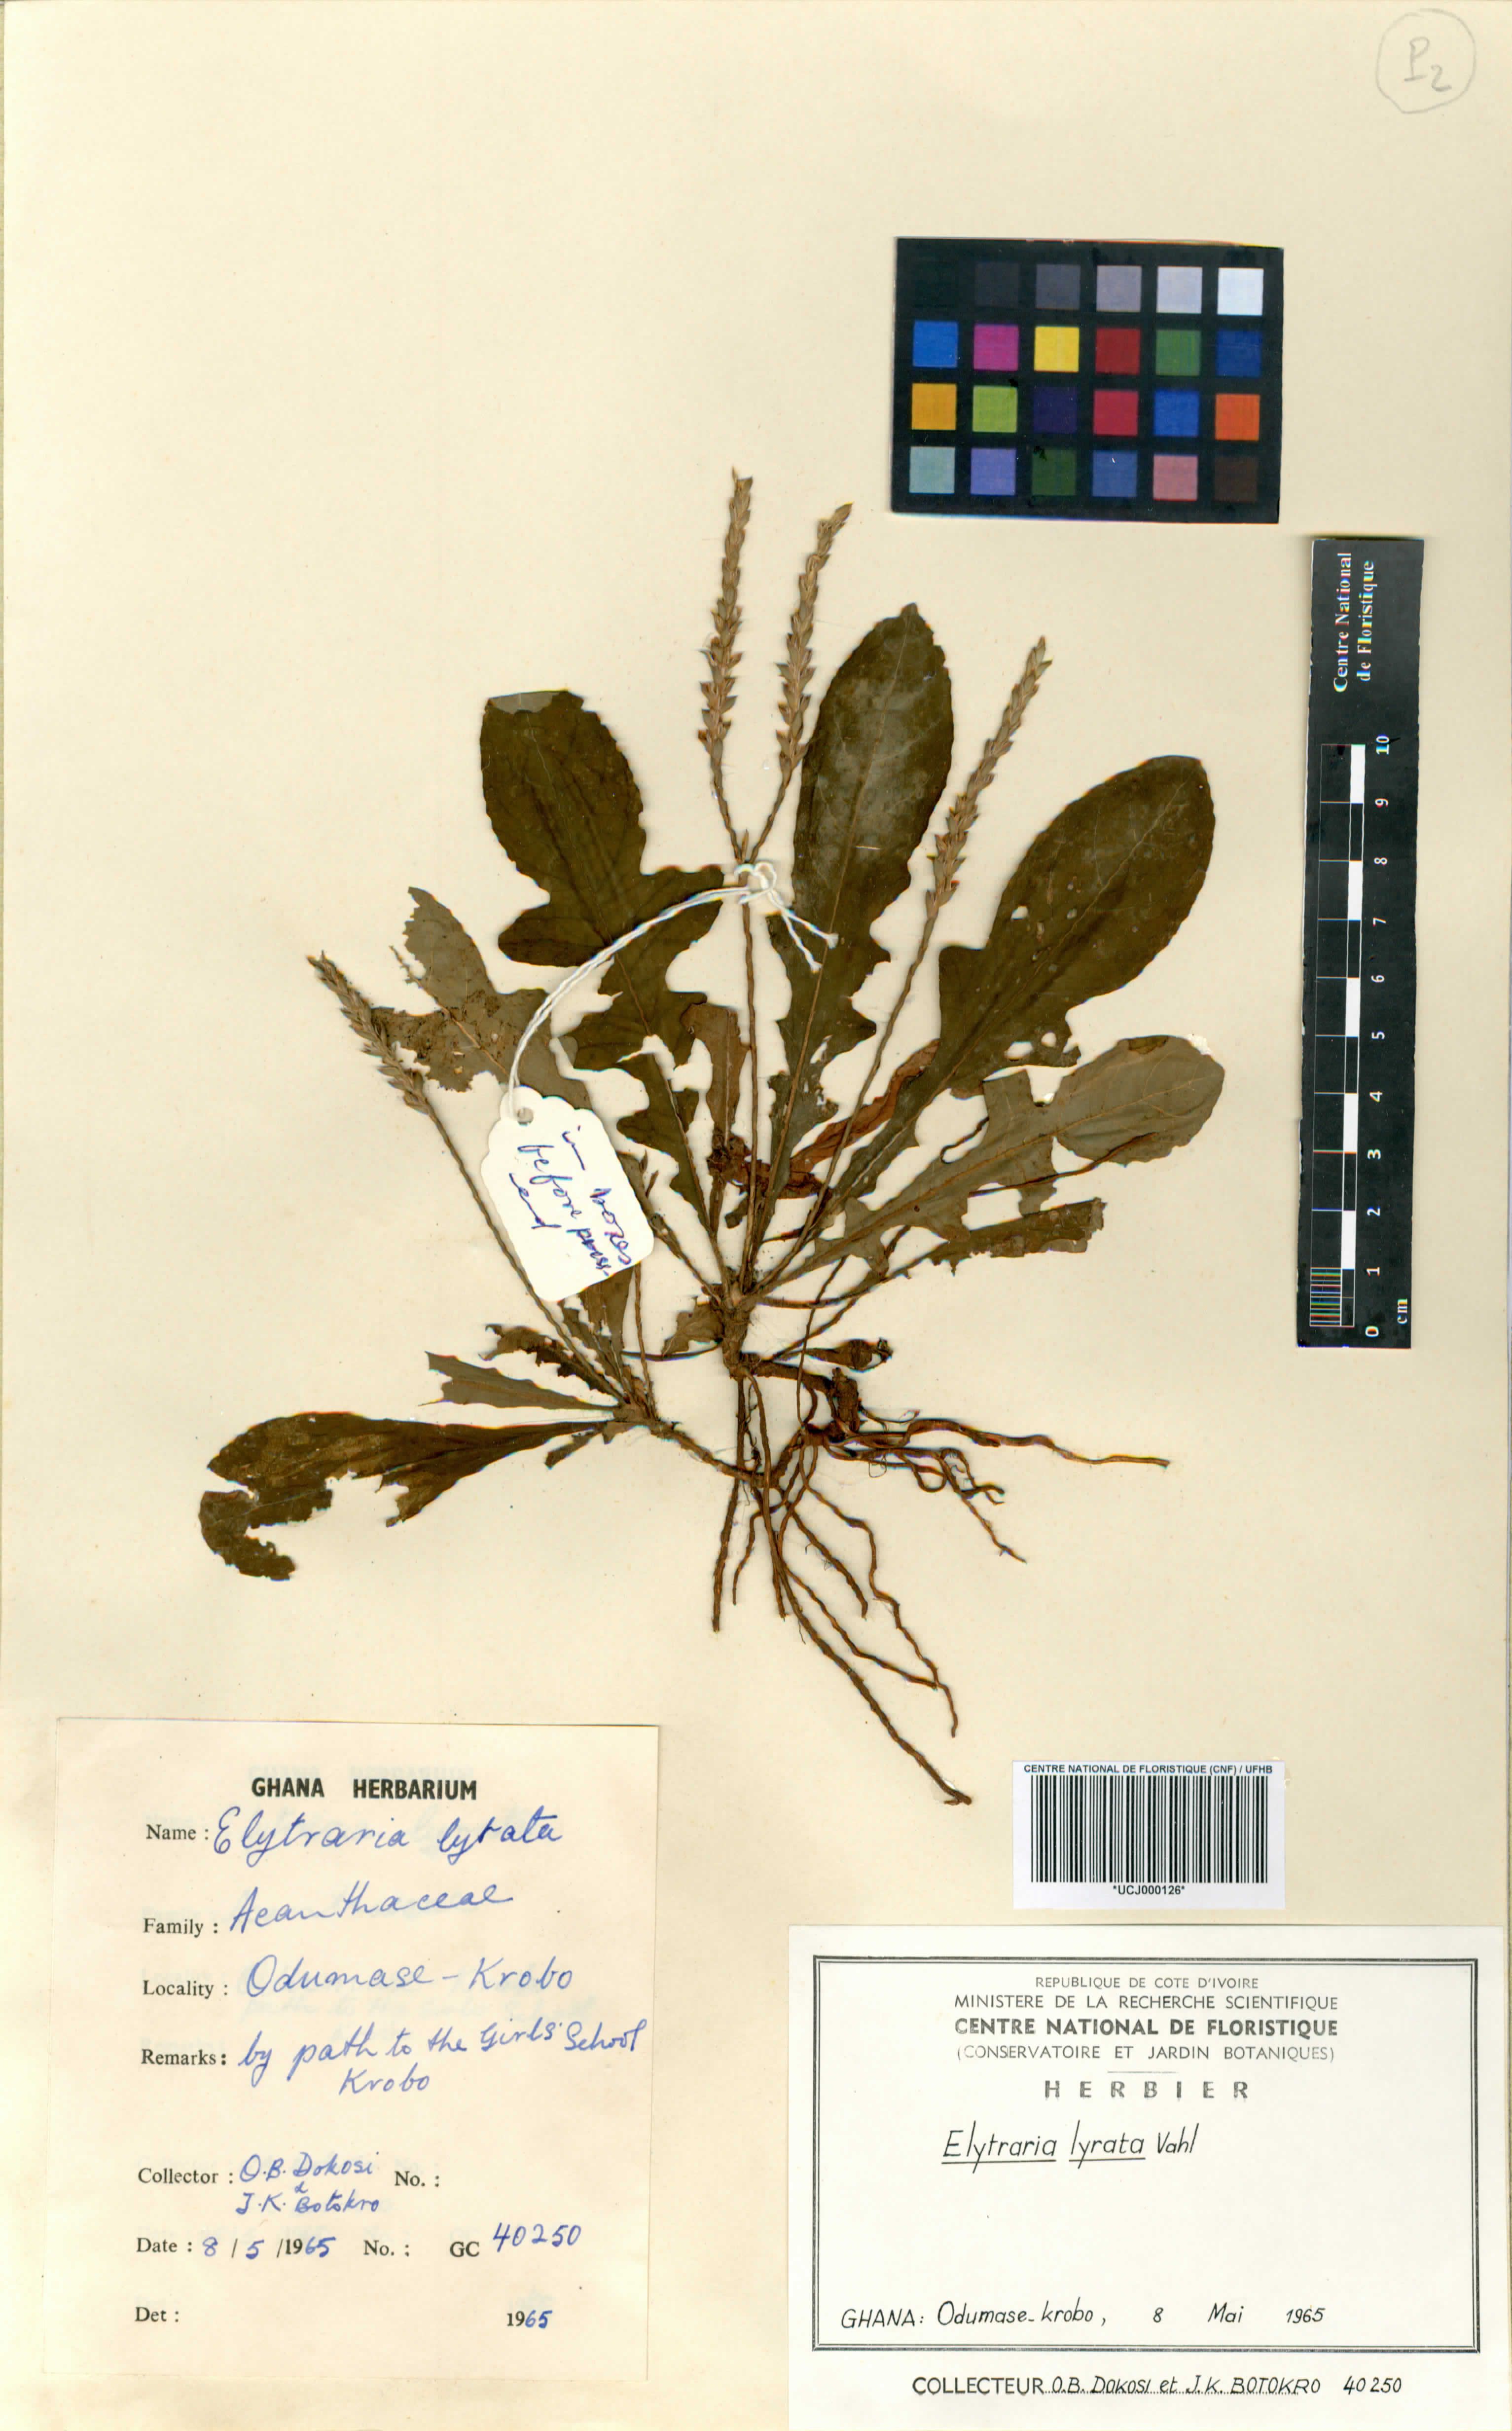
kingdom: Plantae
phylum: Tracheophyta
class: Magnoliopsida
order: Lamiales
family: Acanthaceae
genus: Elytraria
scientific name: Elytraria acaulis
